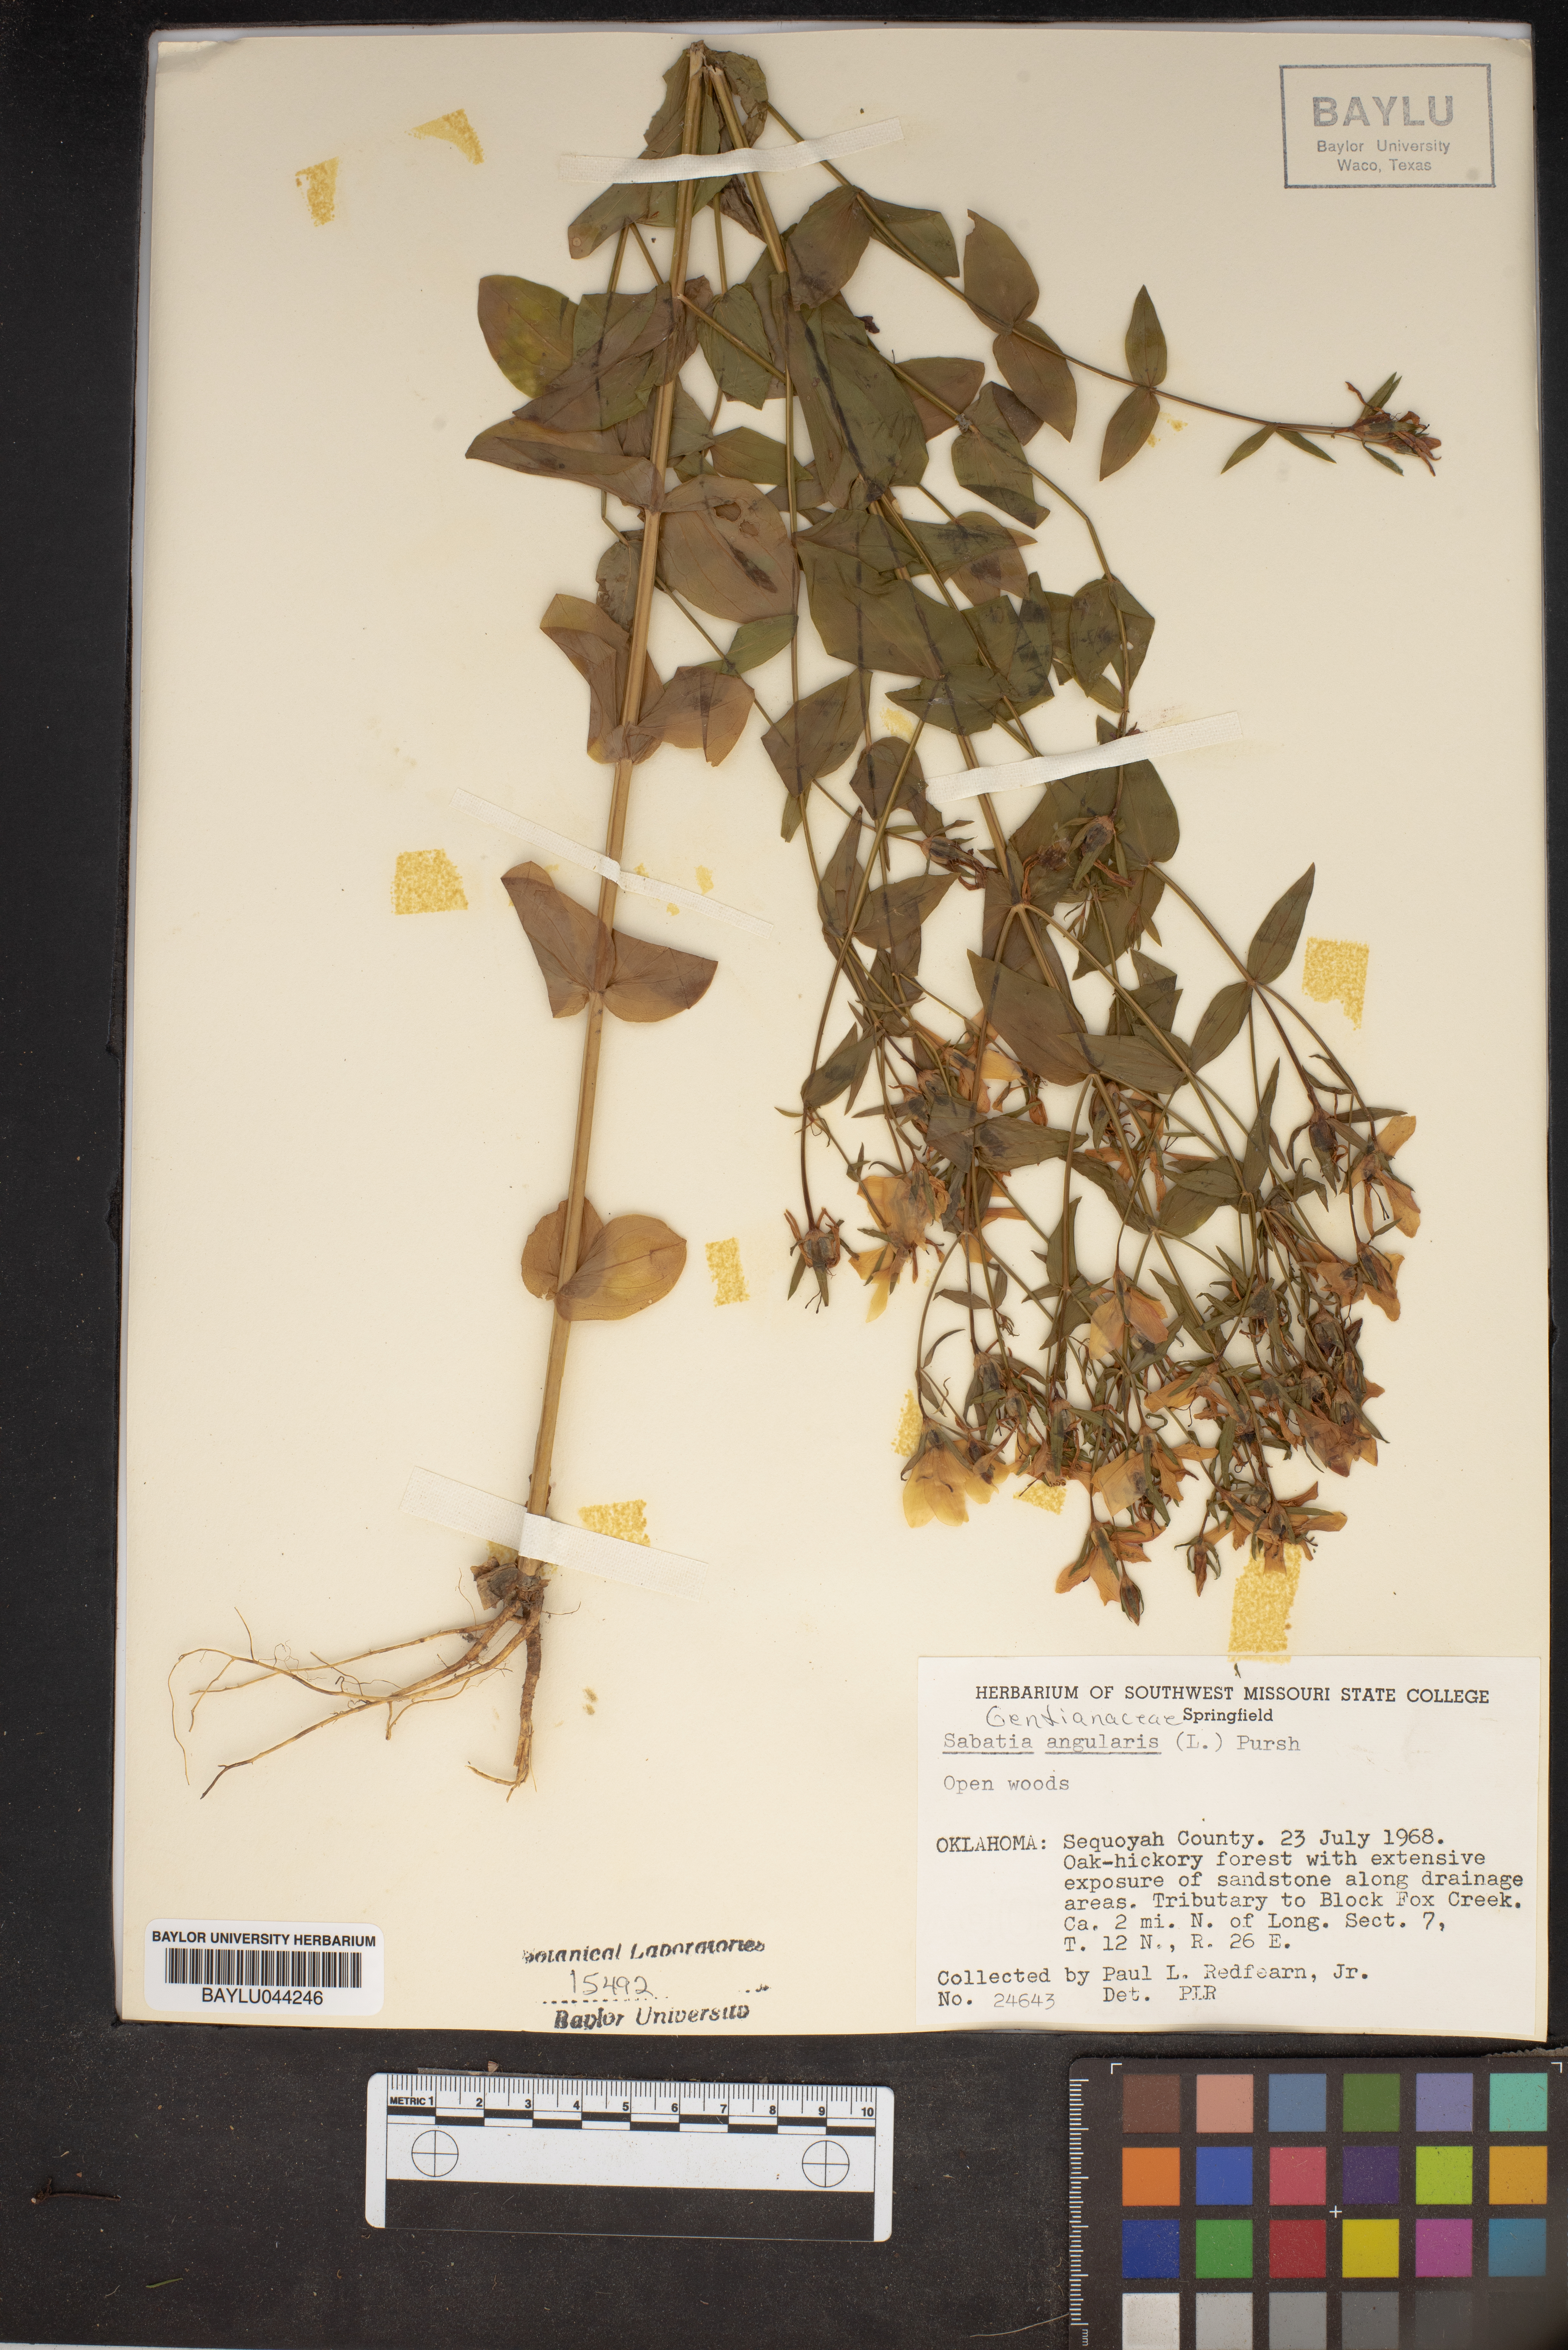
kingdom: Plantae
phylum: Tracheophyta
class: Magnoliopsida
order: Gentianales
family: Gentianaceae
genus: Sabatia
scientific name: Sabatia angularis
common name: Rose-pink
